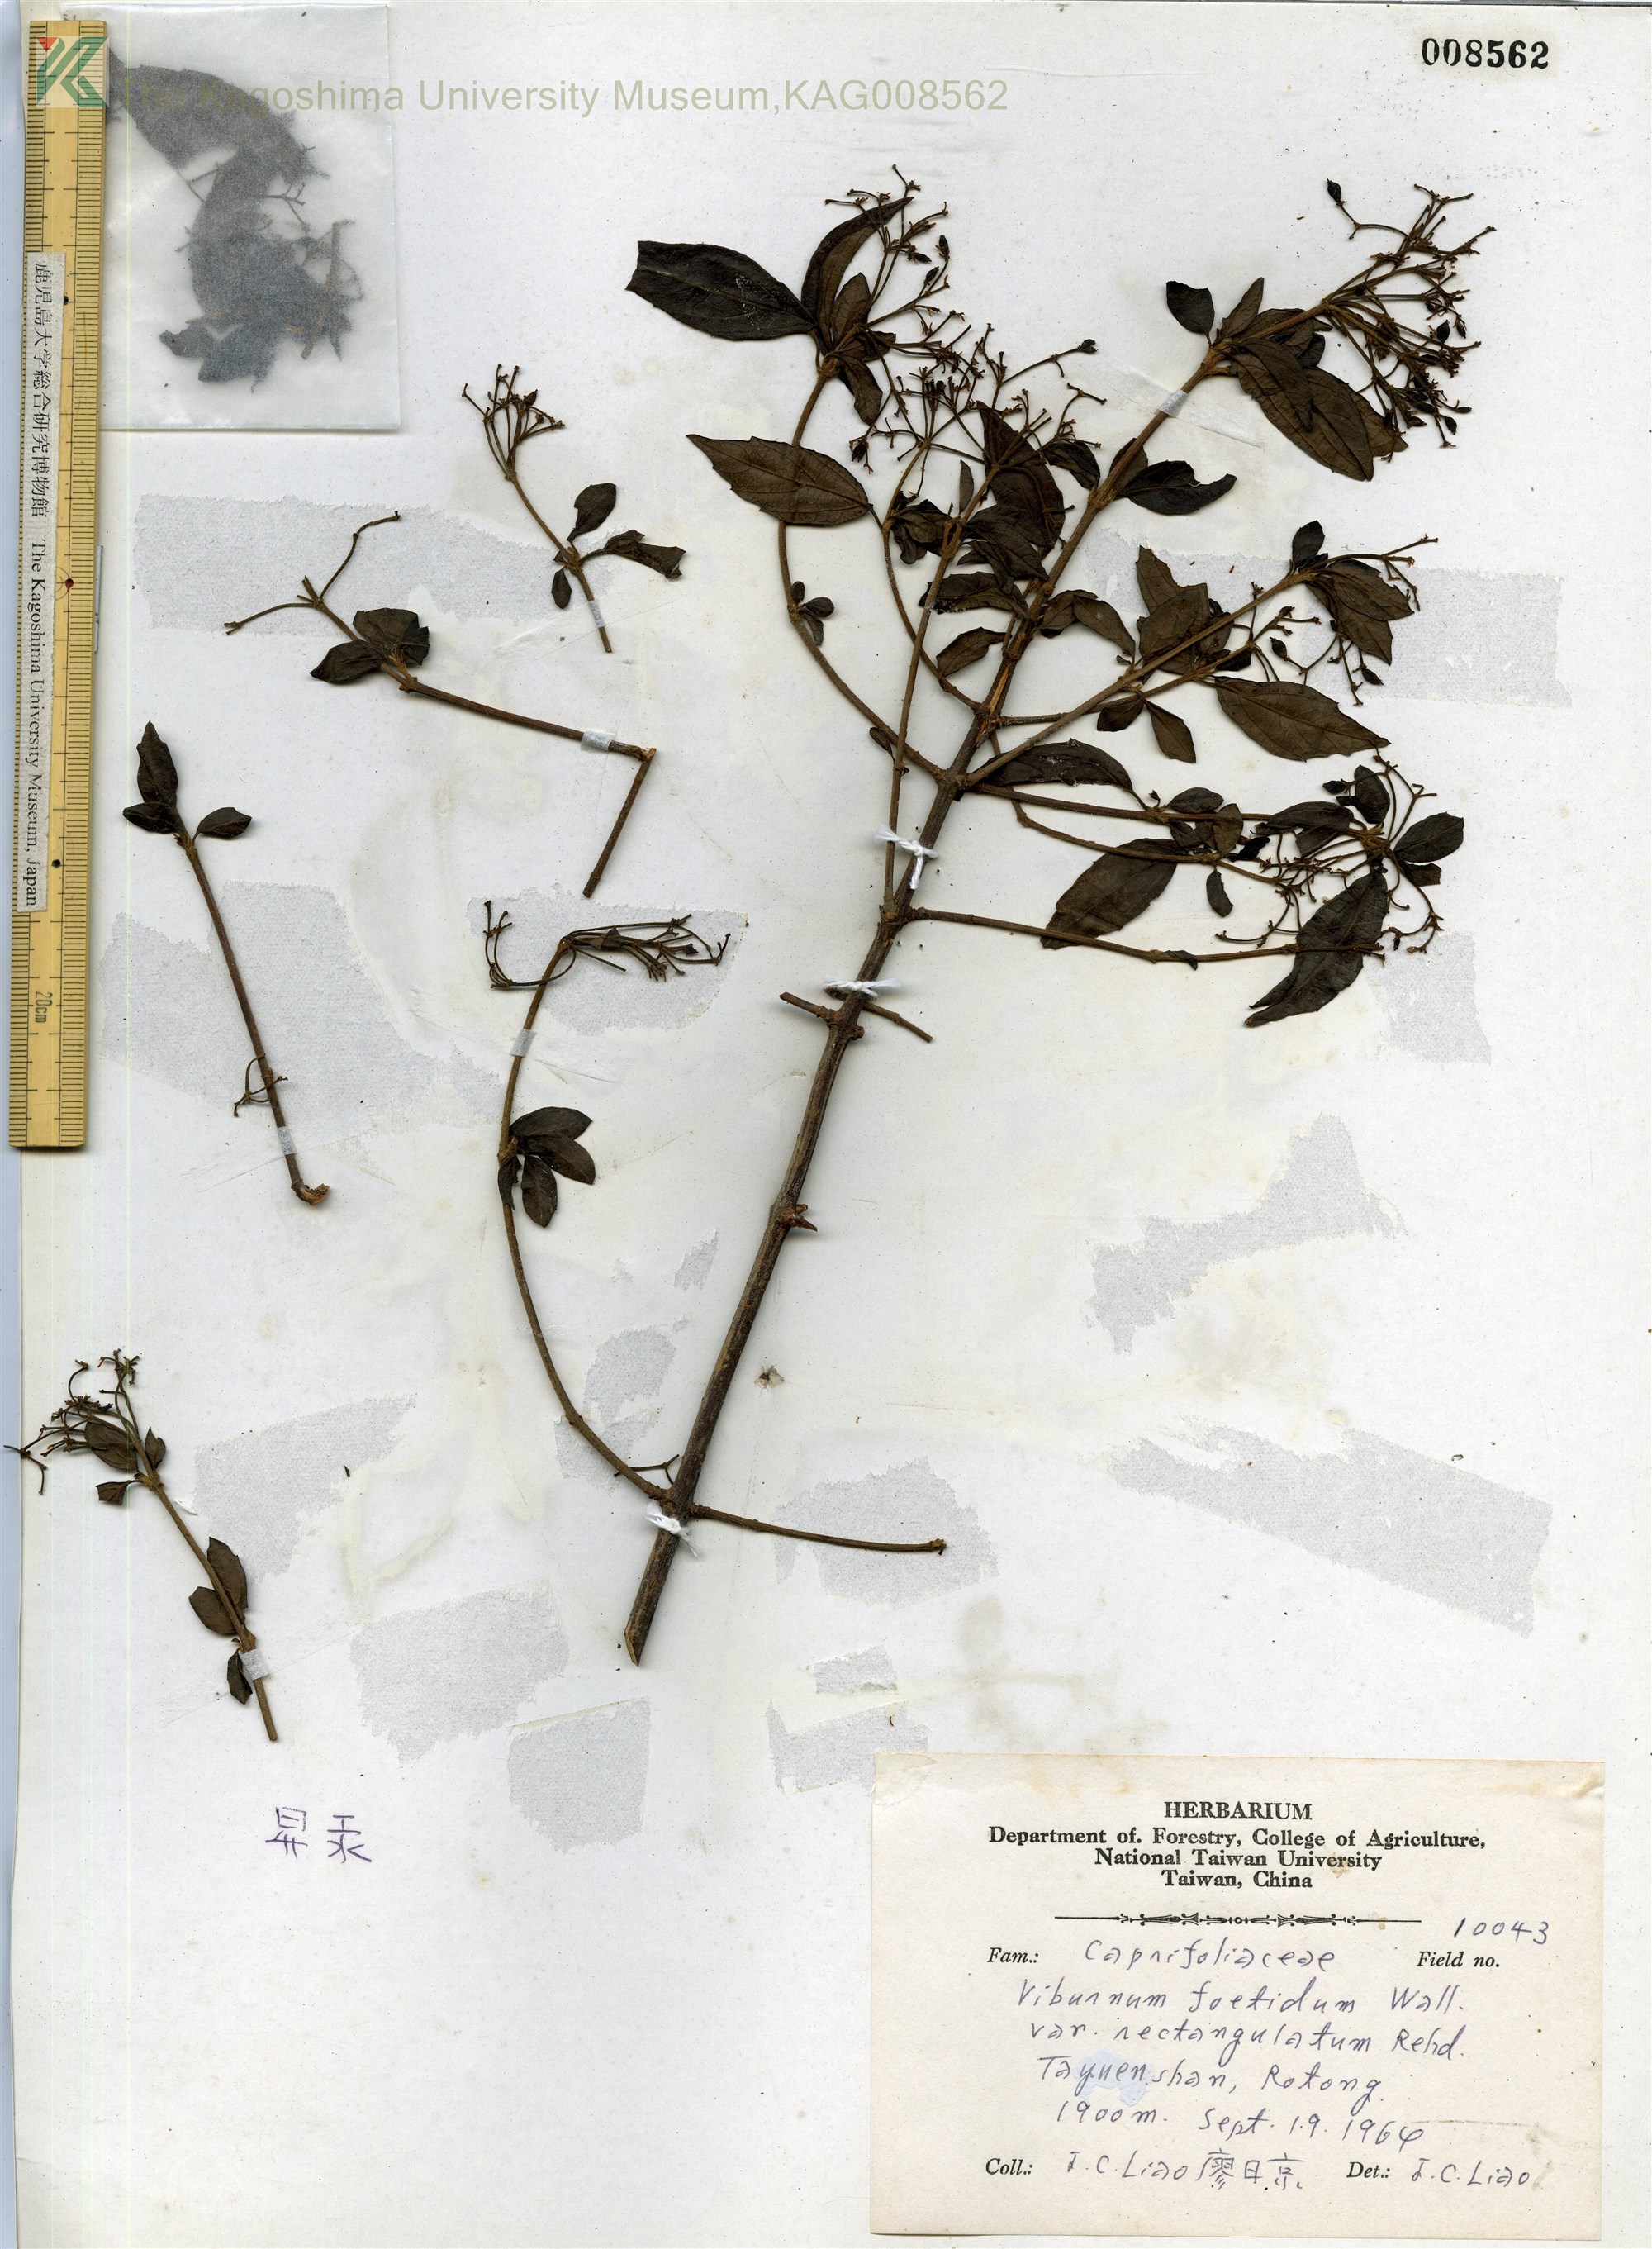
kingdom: Plantae
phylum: Tracheophyta
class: Magnoliopsida
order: Dipsacales
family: Viburnaceae
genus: Viburnum
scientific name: Viburnum foetidum
